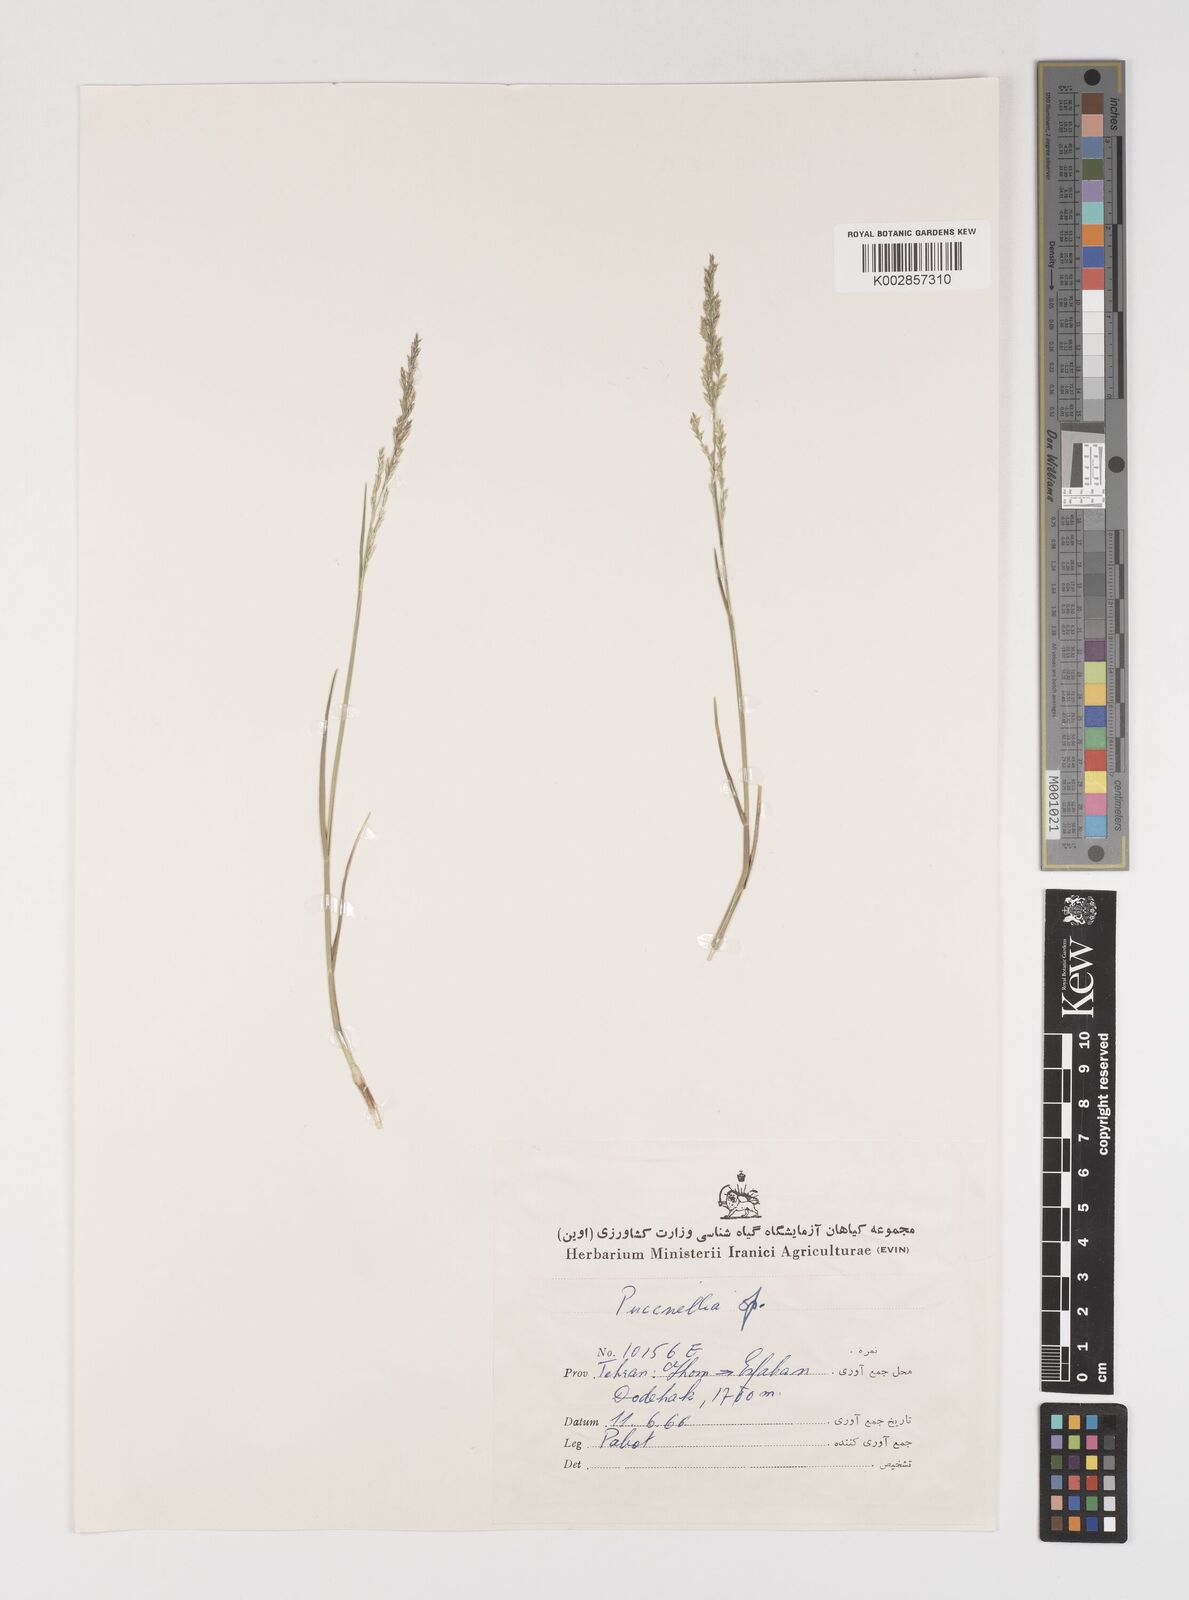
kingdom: Plantae
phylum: Tracheophyta
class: Liliopsida
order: Poales
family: Poaceae
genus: Puccinellia
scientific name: Puccinellia
